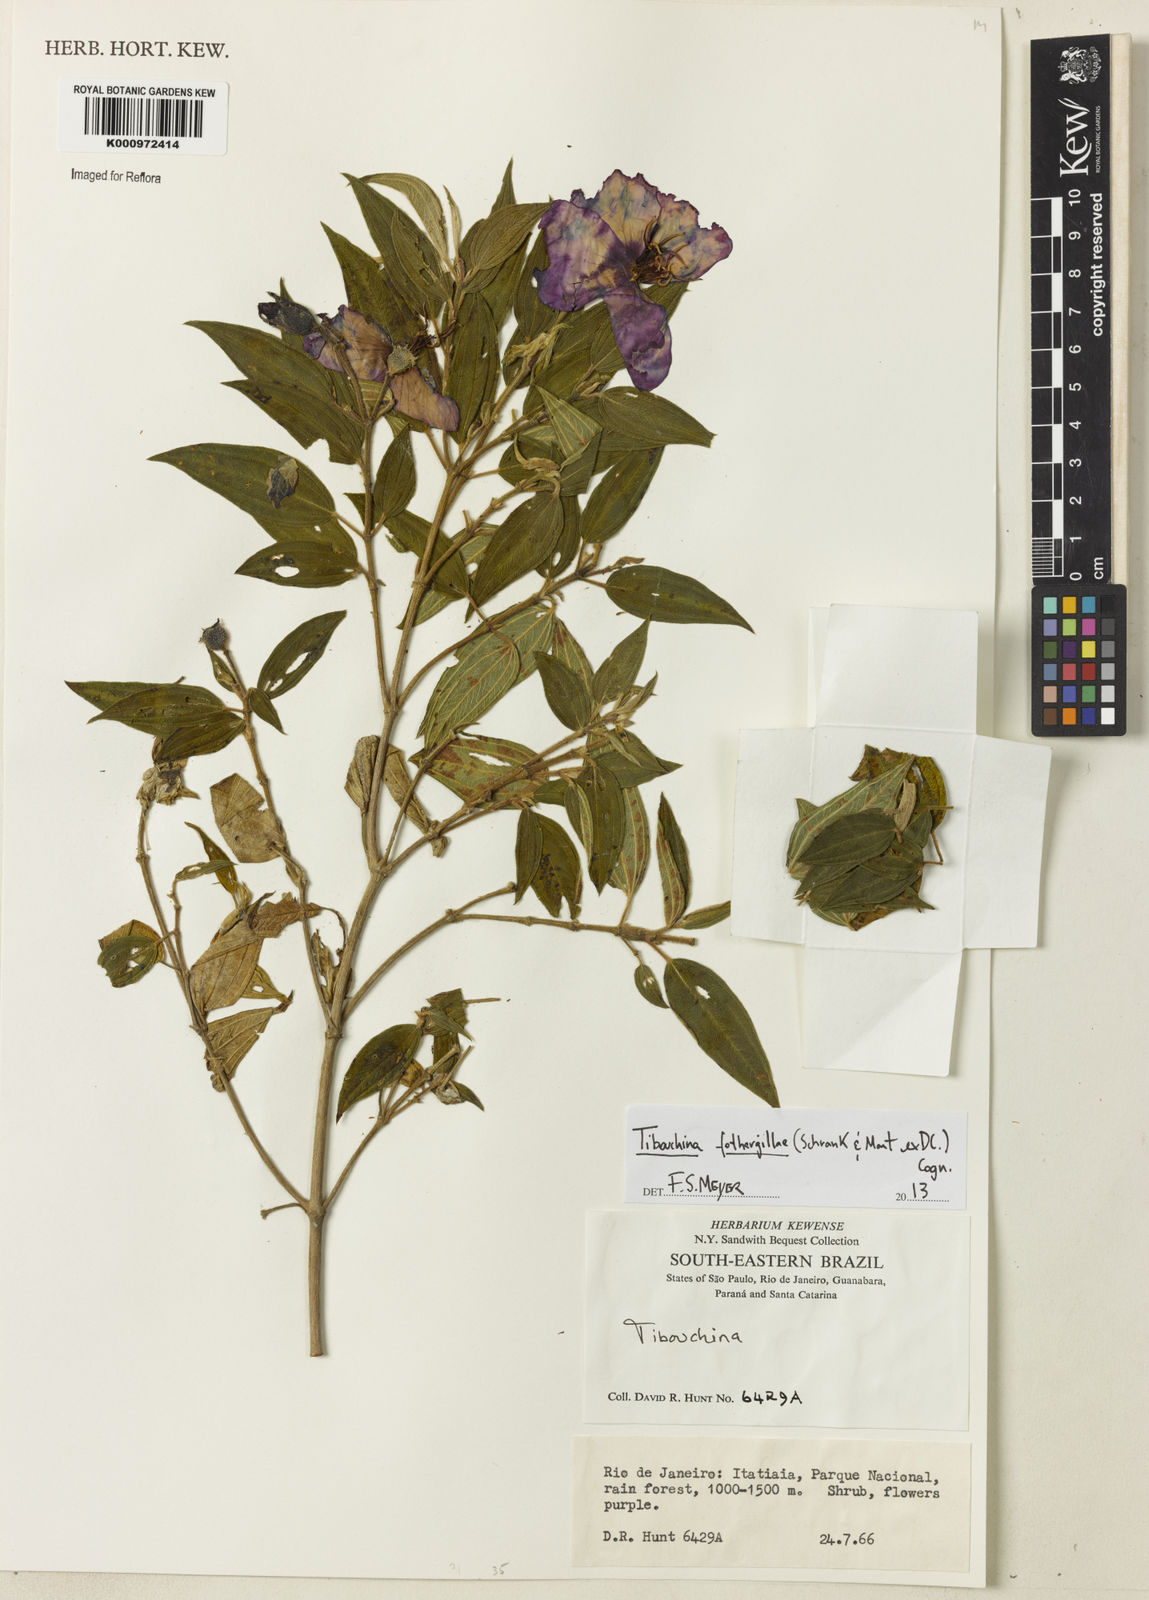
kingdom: Plantae
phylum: Tracheophyta
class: Magnoliopsida
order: Myrtales
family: Melastomataceae
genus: Pleroma
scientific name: Pleroma fothergillae
